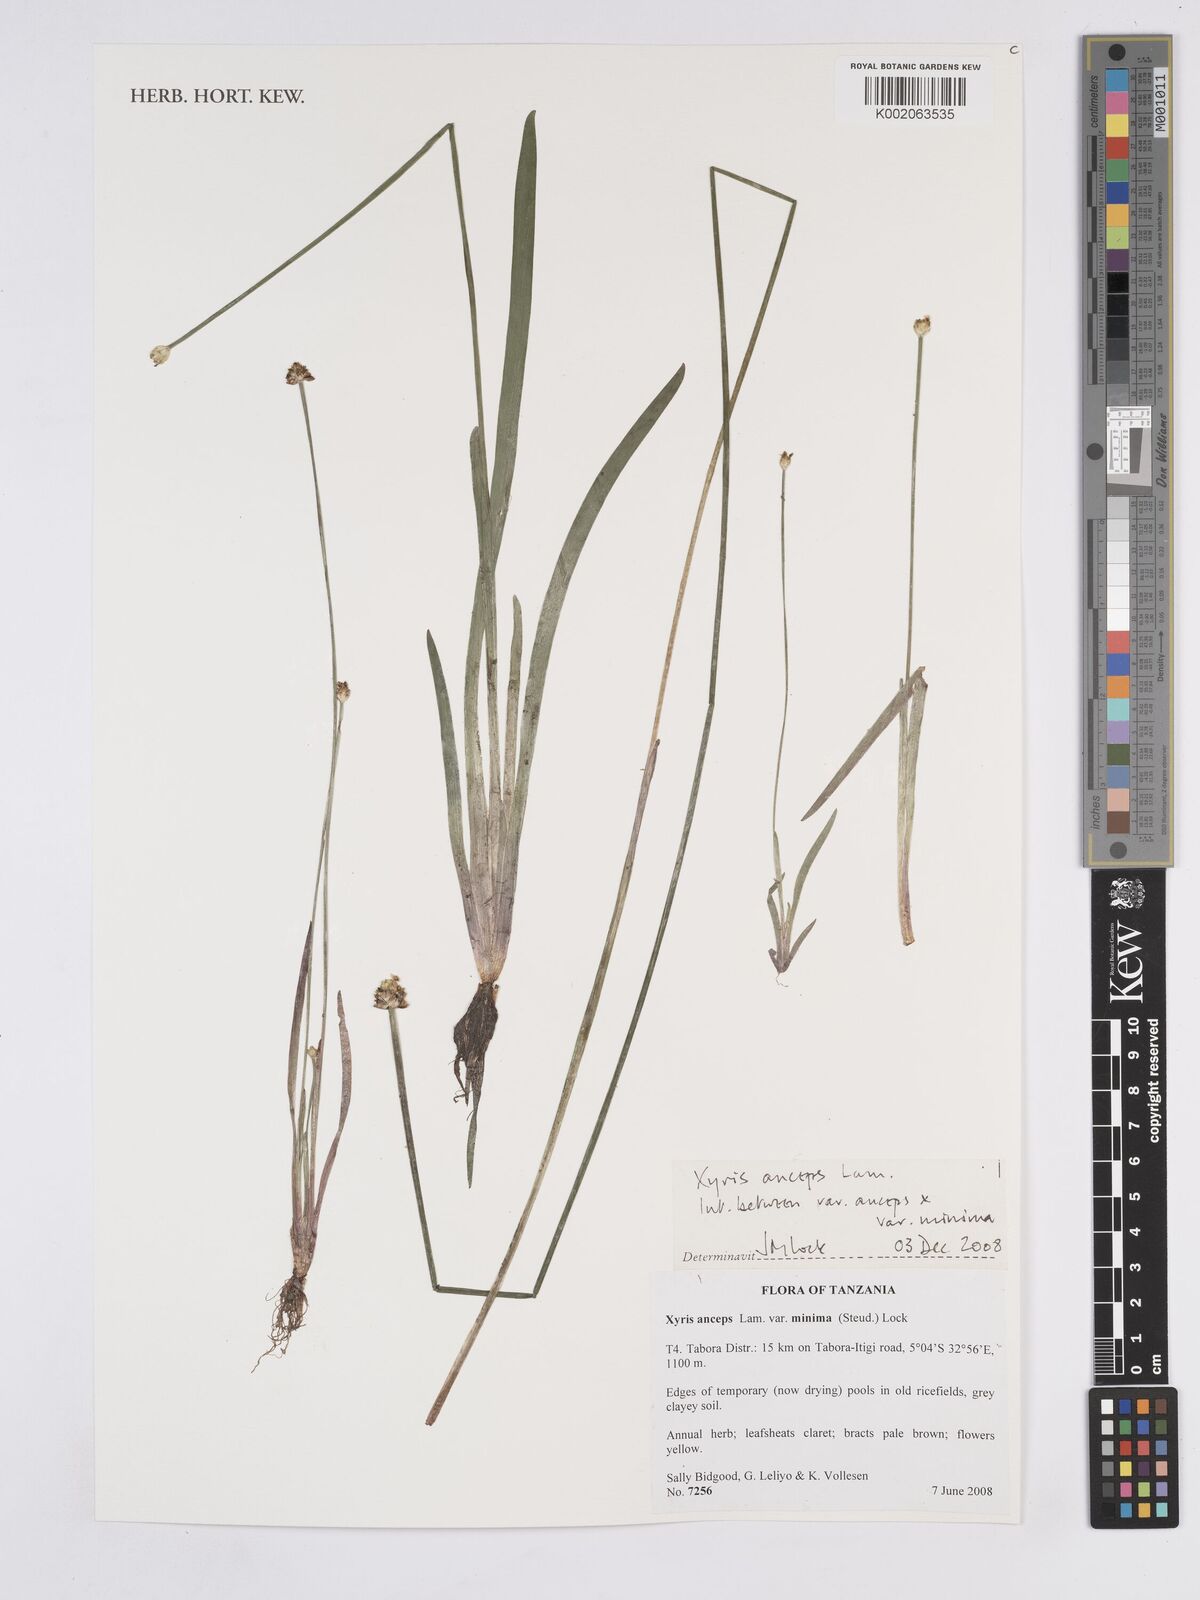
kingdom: Plantae
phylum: Tracheophyta
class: Liliopsida
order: Poales
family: Xyridaceae
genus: Xyris
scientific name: Xyris anceps
